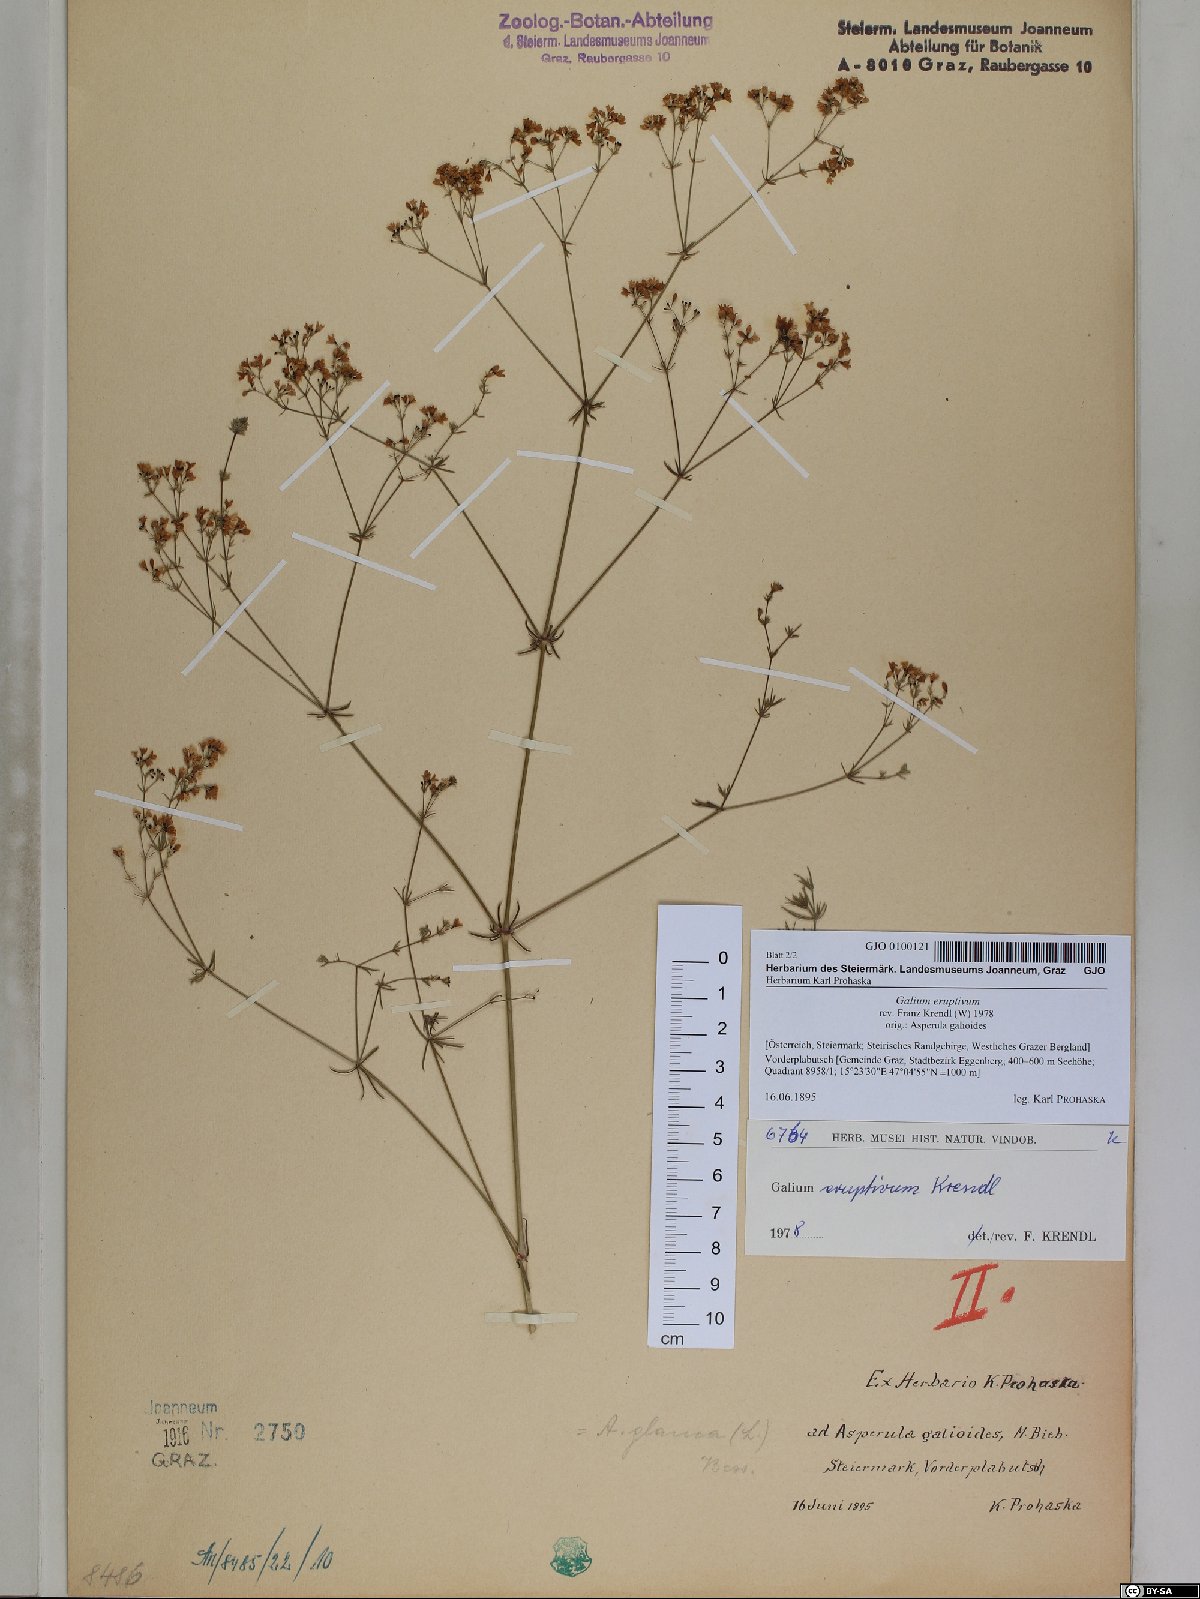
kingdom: Plantae
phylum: Tracheophyta
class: Magnoliopsida
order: Gentianales
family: Rubiaceae
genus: Galium
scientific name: Galium eruptivum
